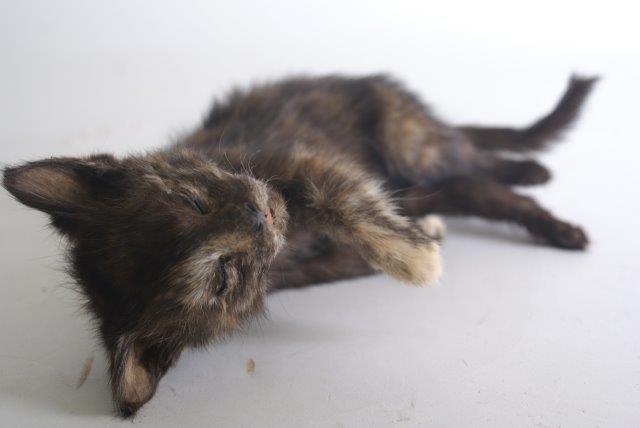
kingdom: Animalia
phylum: Chordata
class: Mammalia
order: Carnivora
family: Felidae
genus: Felis
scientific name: Felis catus
